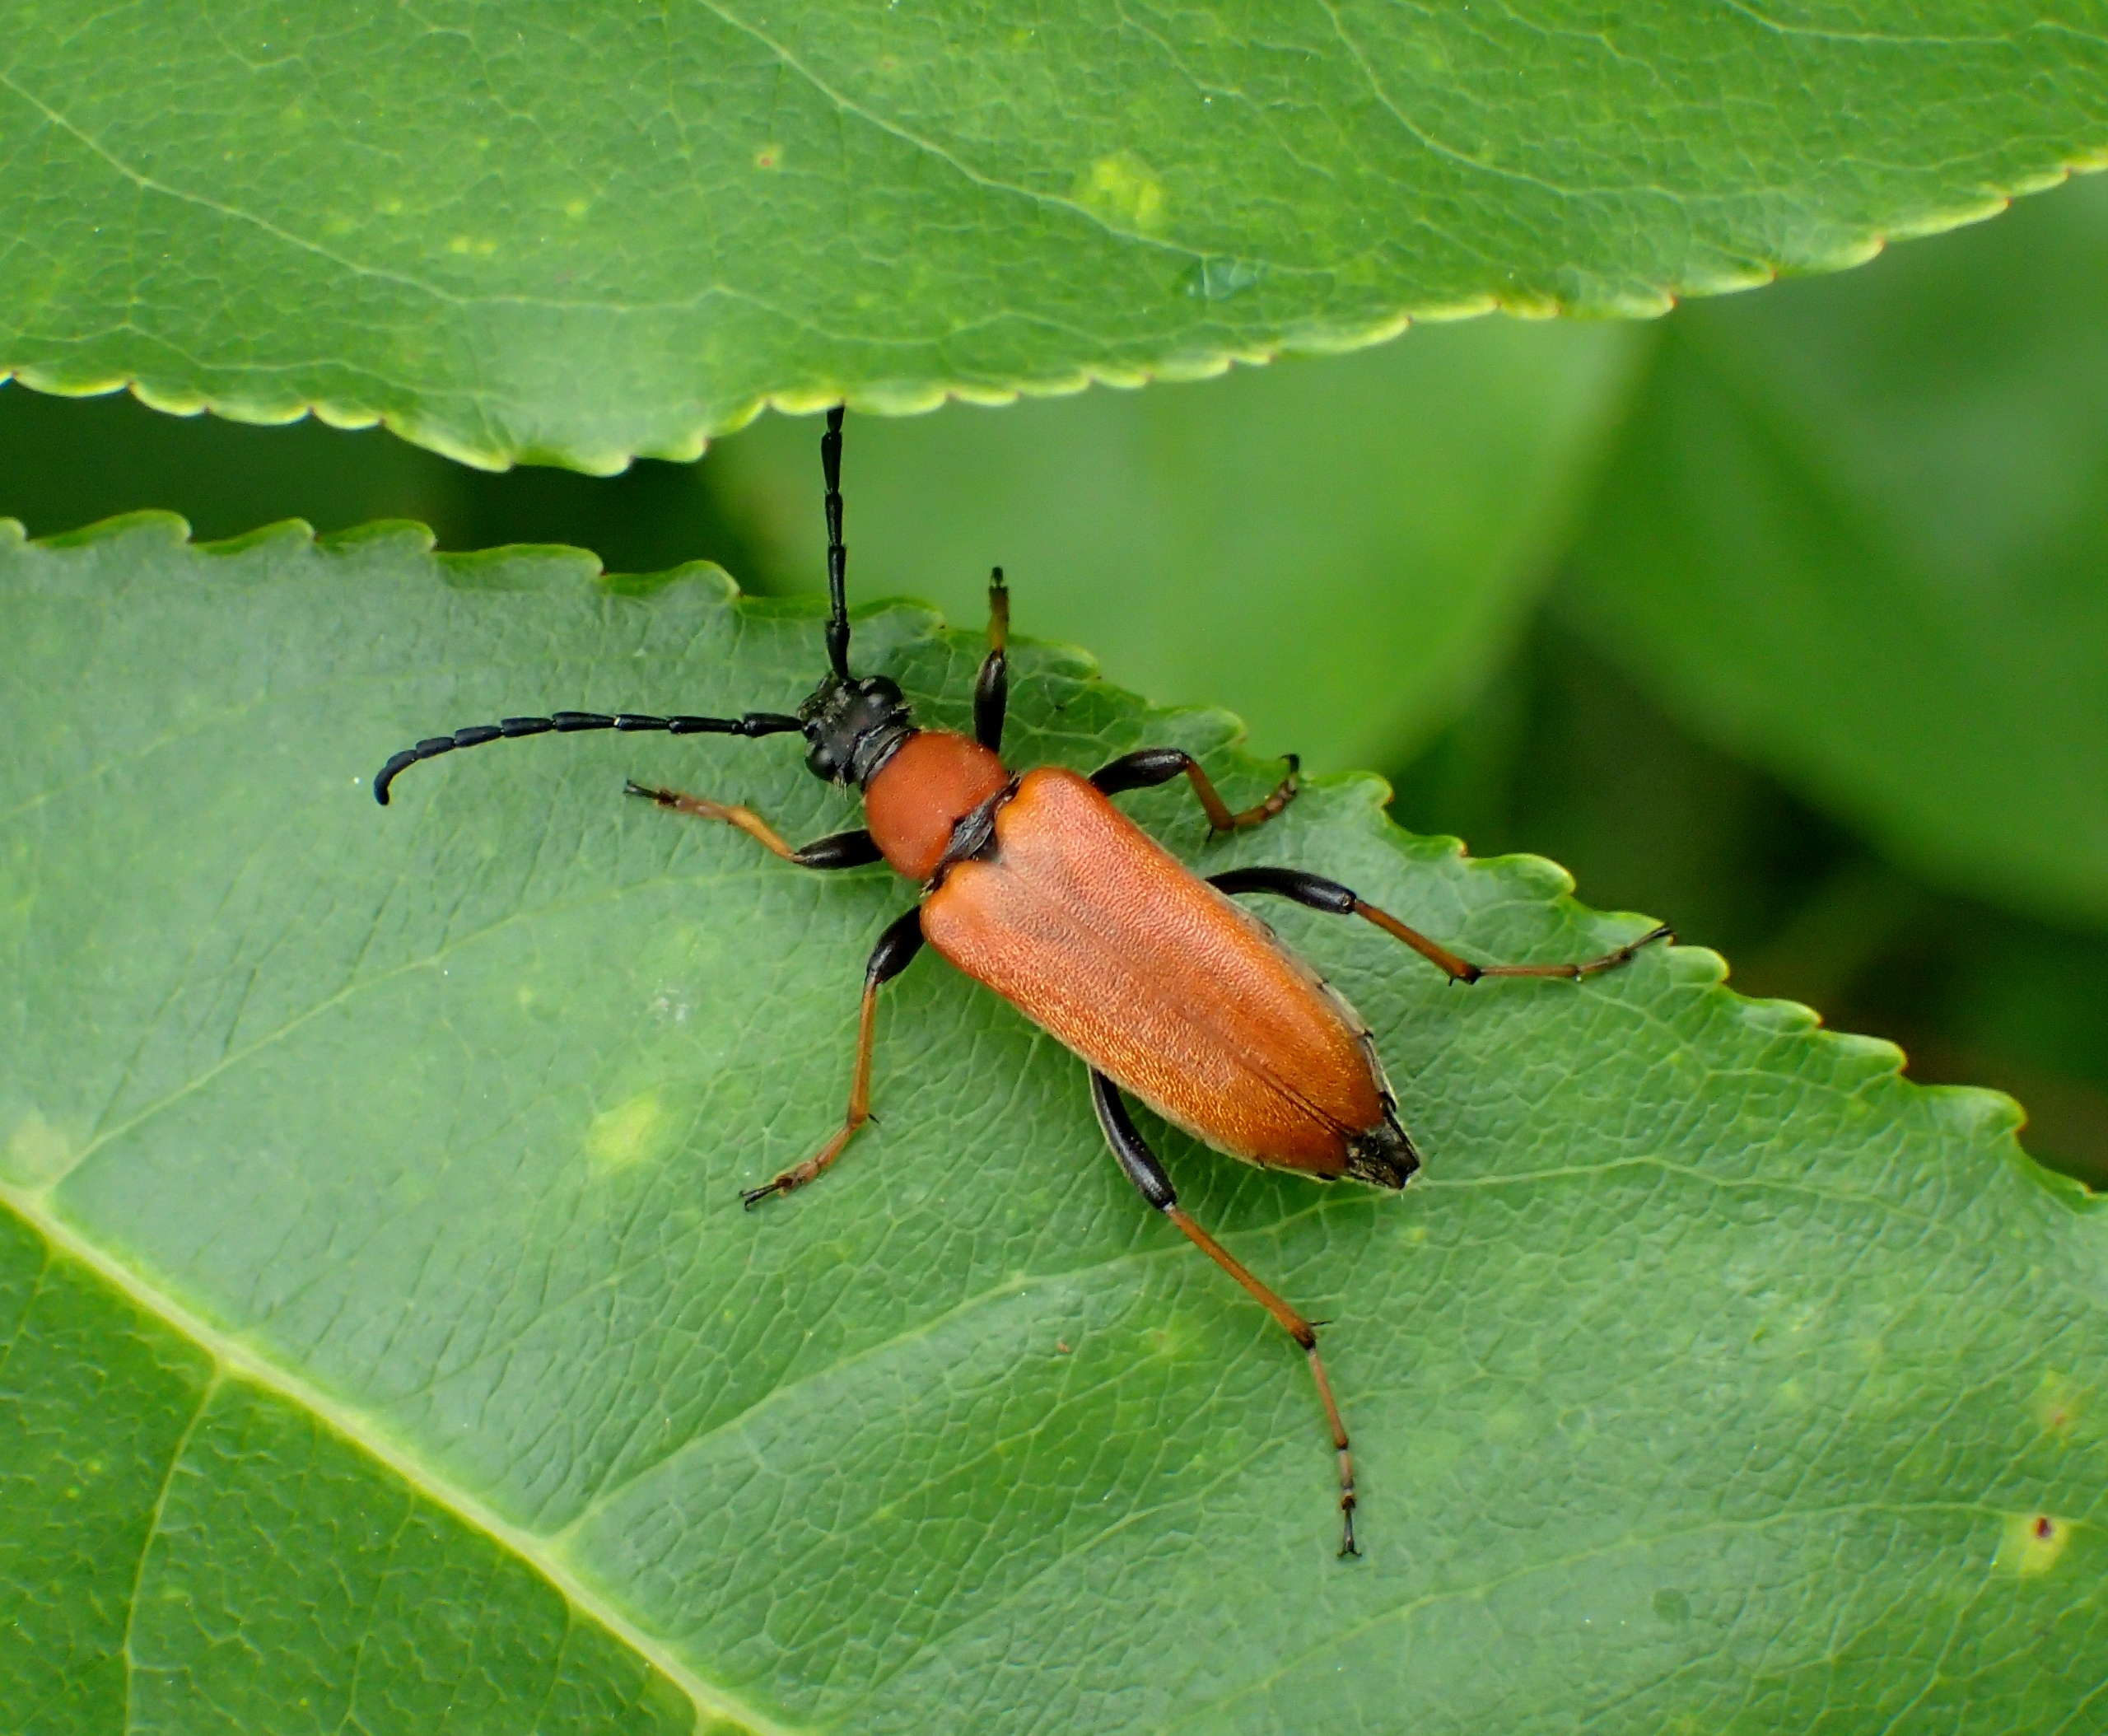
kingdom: Animalia
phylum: Arthropoda
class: Insecta
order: Coleoptera
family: Cerambycidae
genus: Stictoleptura
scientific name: Stictoleptura rubra
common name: Rød blomsterbuk
